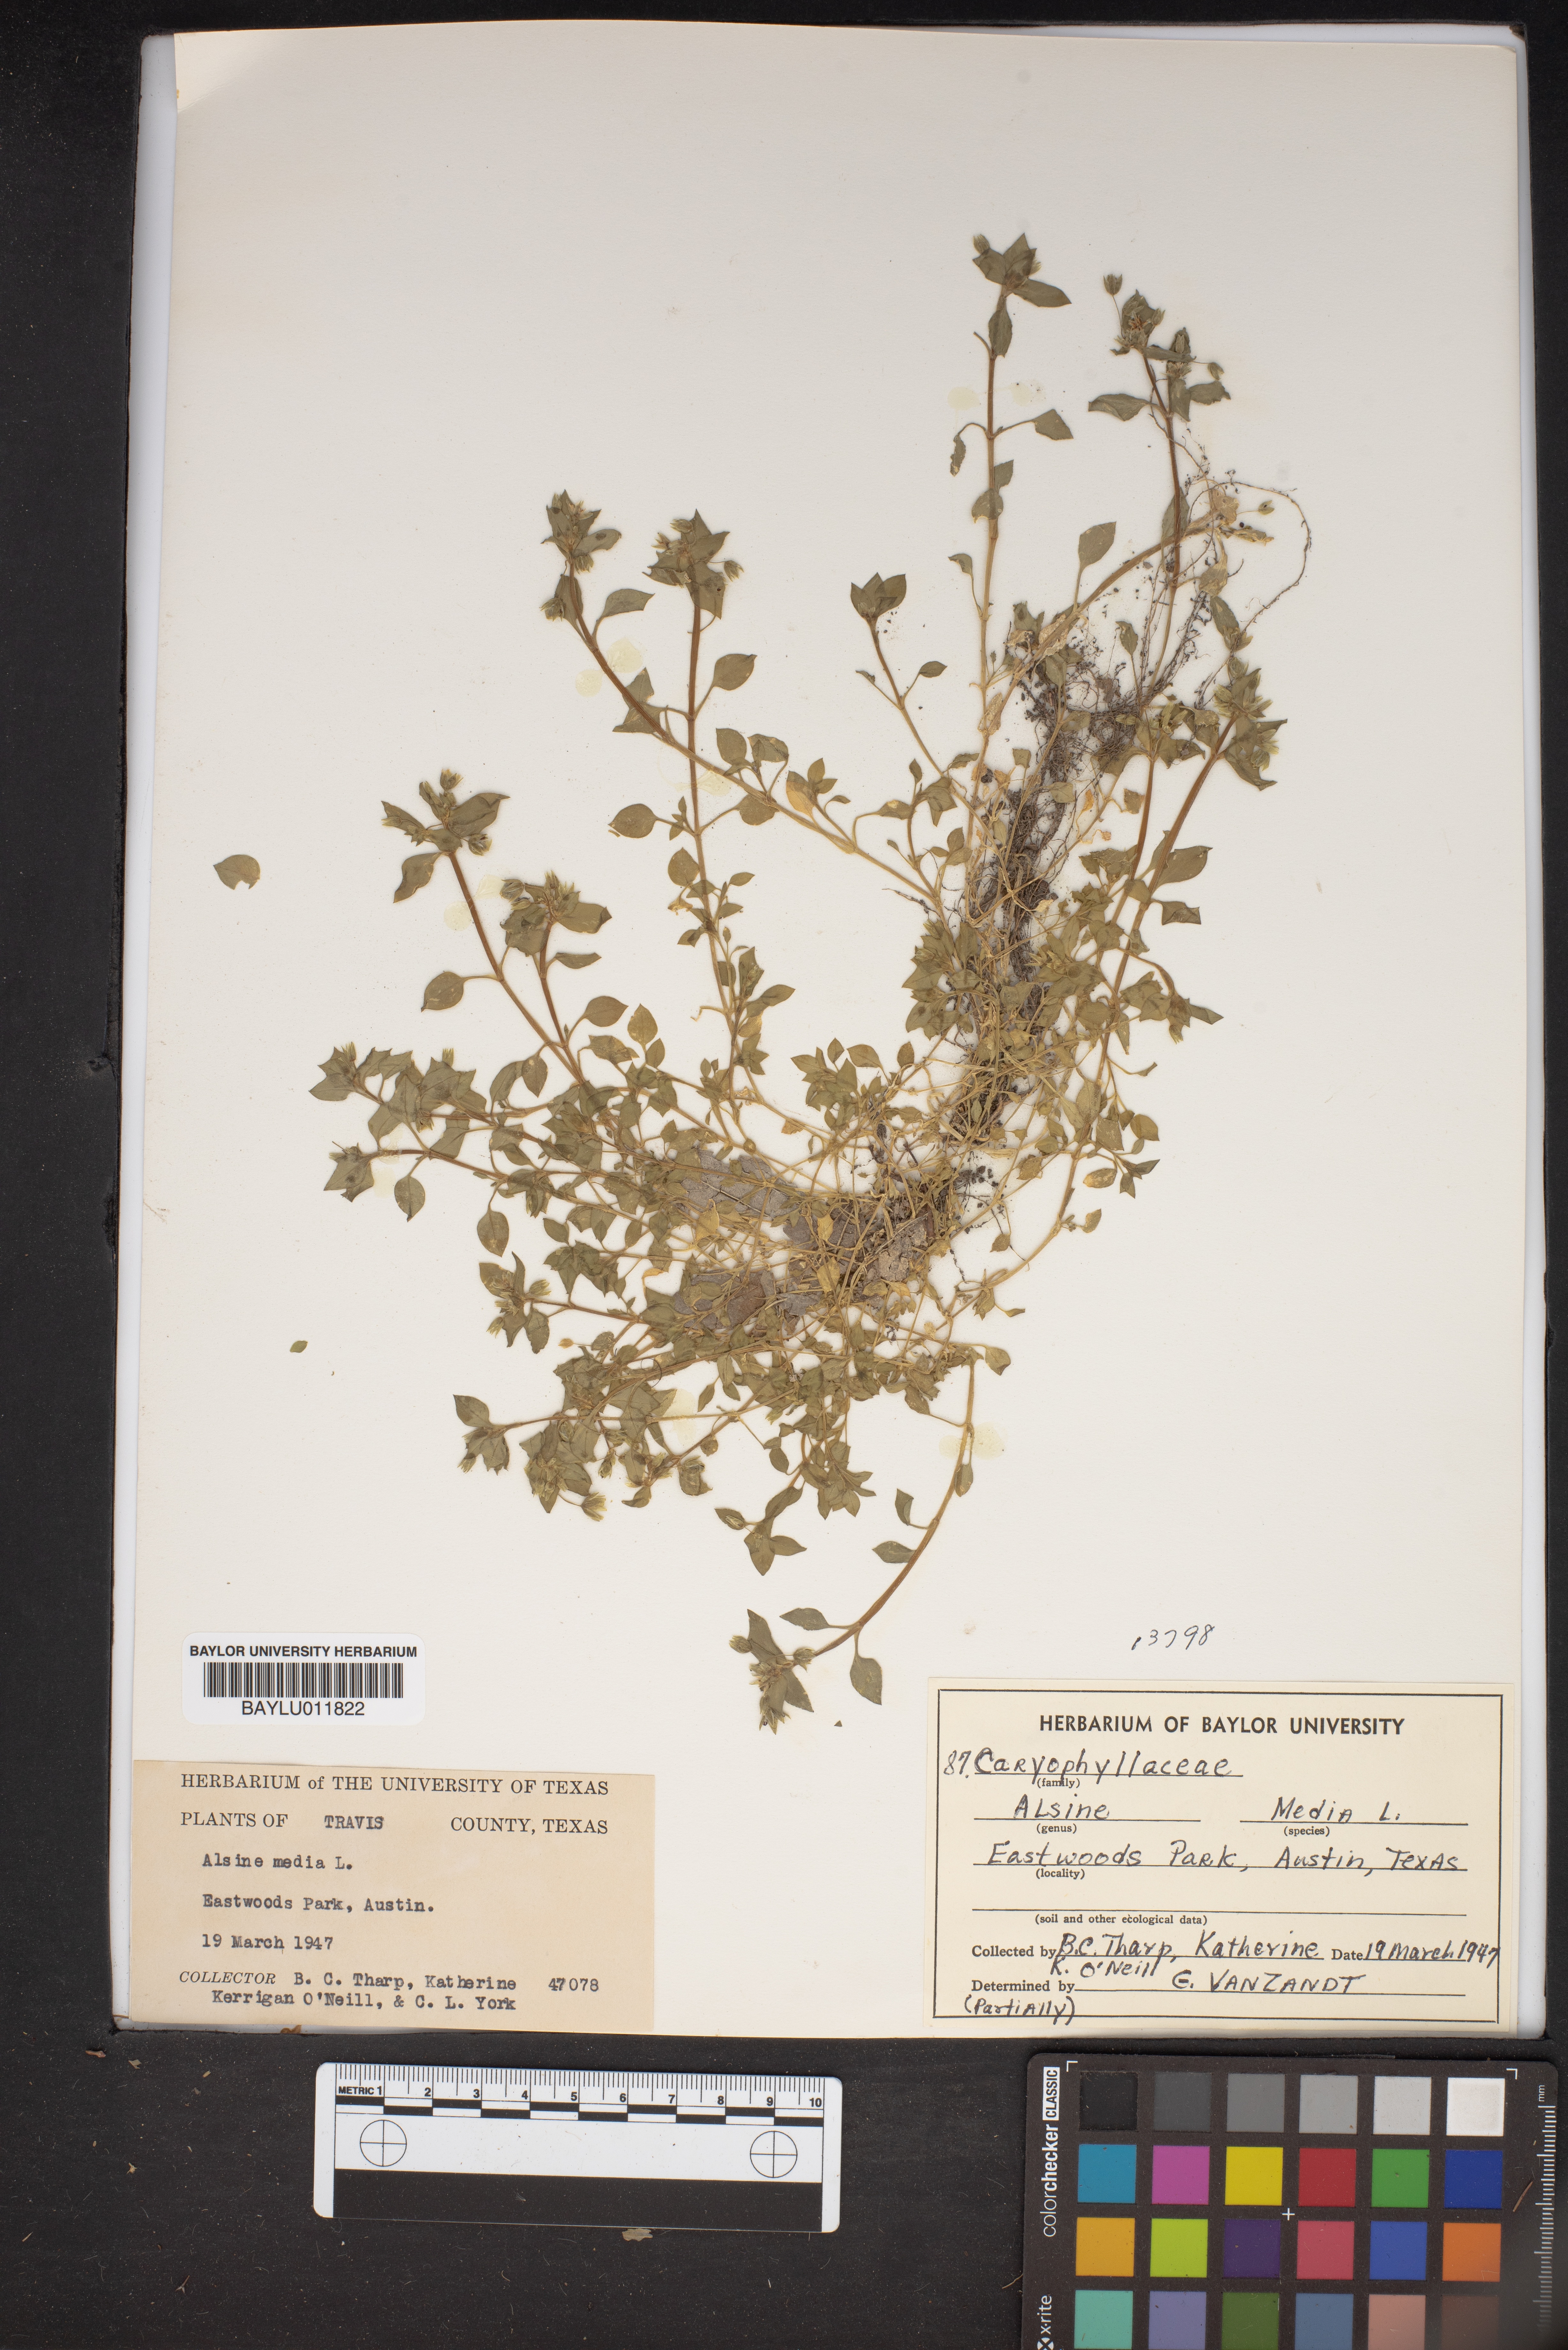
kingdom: Plantae
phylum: Tracheophyta
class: Magnoliopsida
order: Caryophyllales
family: Caryophyllaceae
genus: Stellaria
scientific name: Stellaria media
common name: Common chickweed
